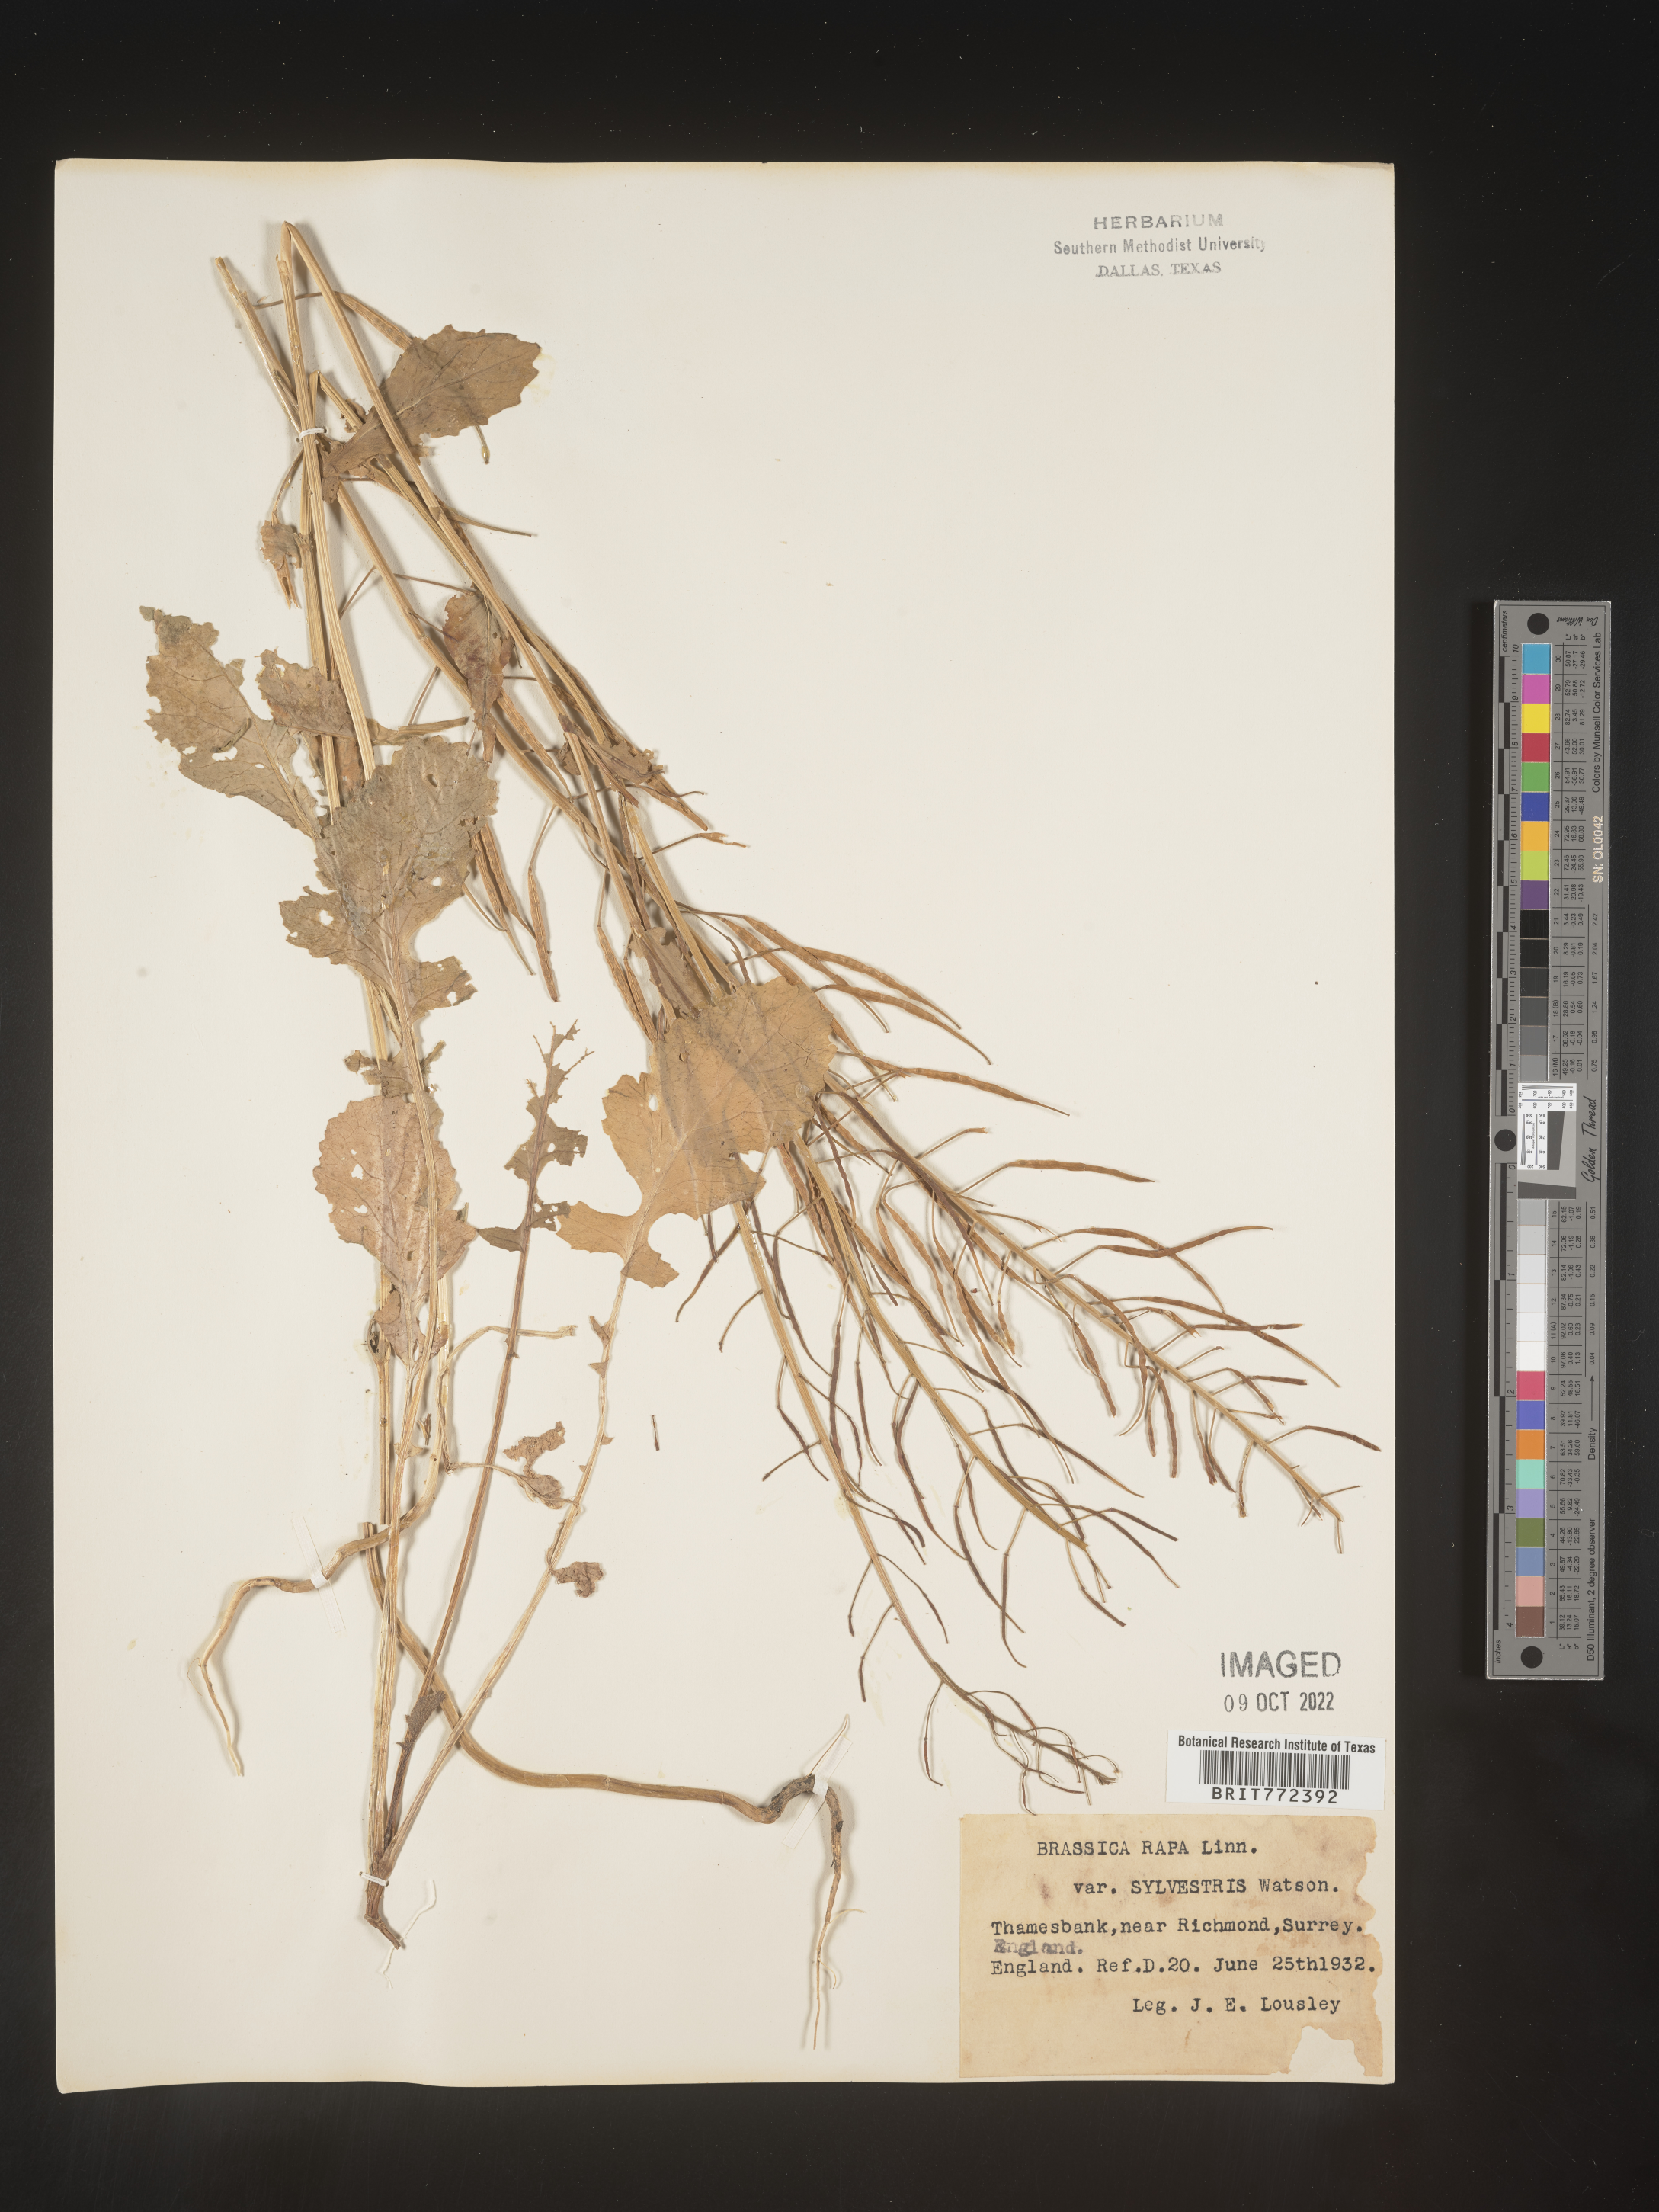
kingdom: Plantae
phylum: Tracheophyta
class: Magnoliopsida
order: Brassicales
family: Brassicaceae
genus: Brassica
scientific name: Brassica
